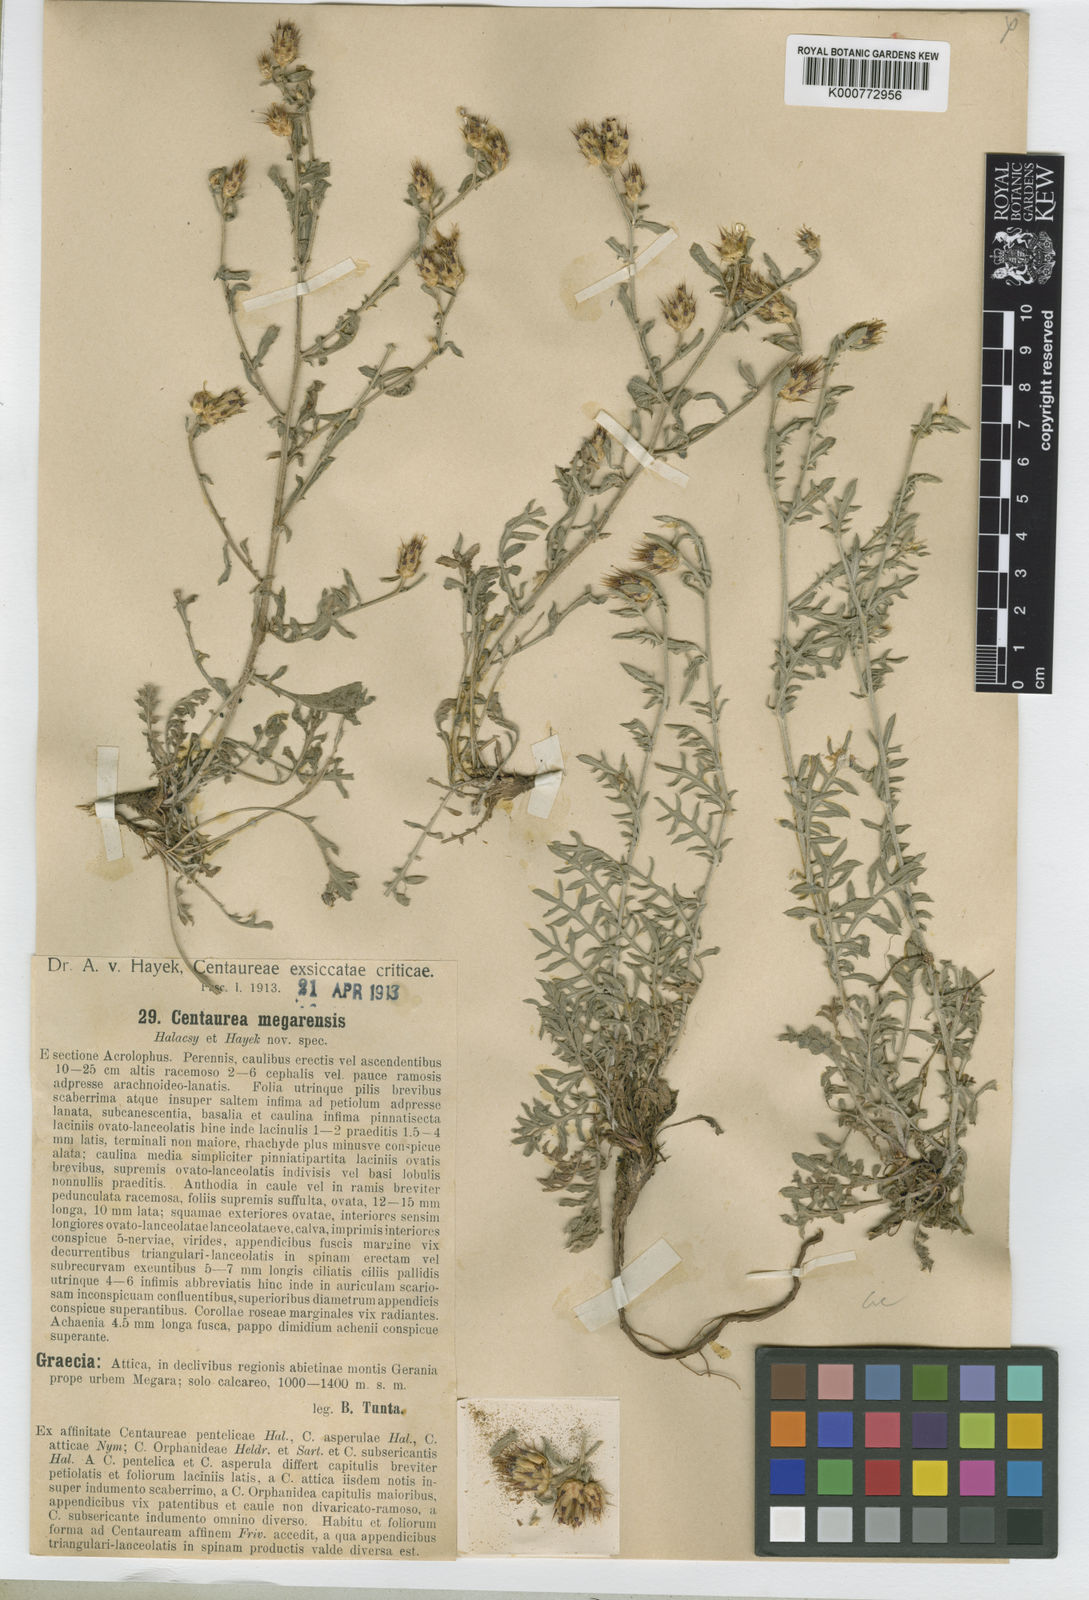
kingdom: Plantae
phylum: Tracheophyta
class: Magnoliopsida
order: Asterales
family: Asteraceae
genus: Centaurea
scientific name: Centaurea
